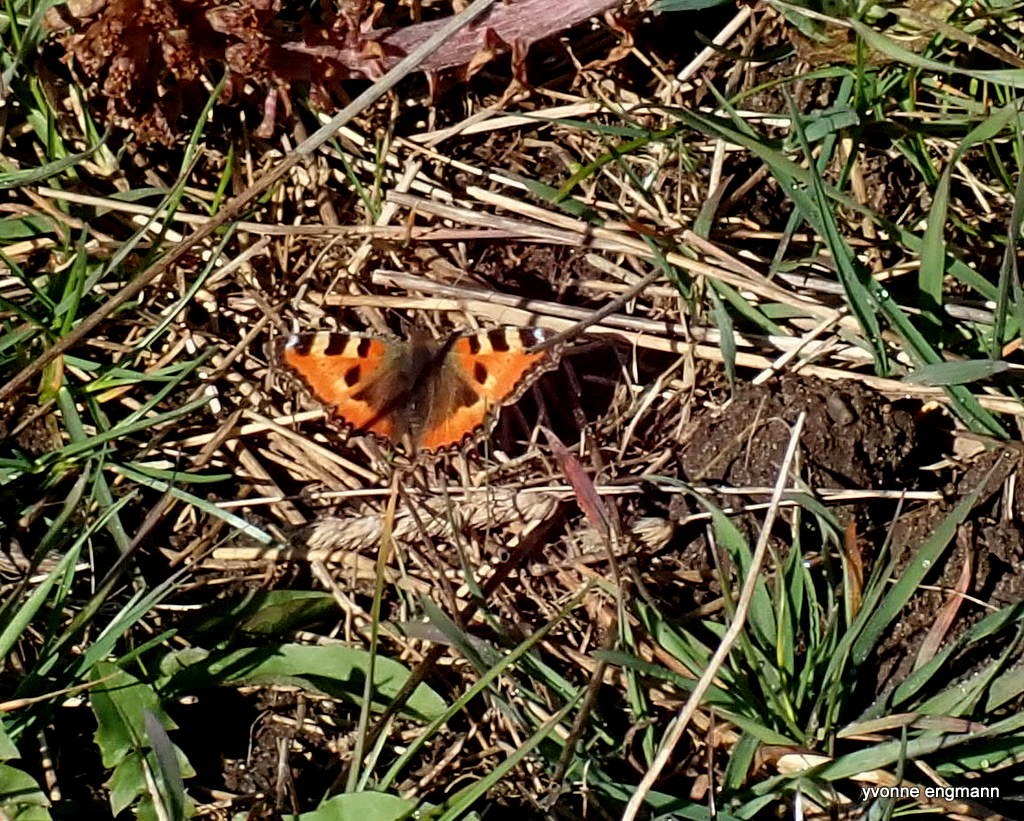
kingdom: Animalia
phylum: Arthropoda
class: Insecta
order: Lepidoptera
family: Nymphalidae
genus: Aglais
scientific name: Aglais urticae
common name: Nældens takvinge
